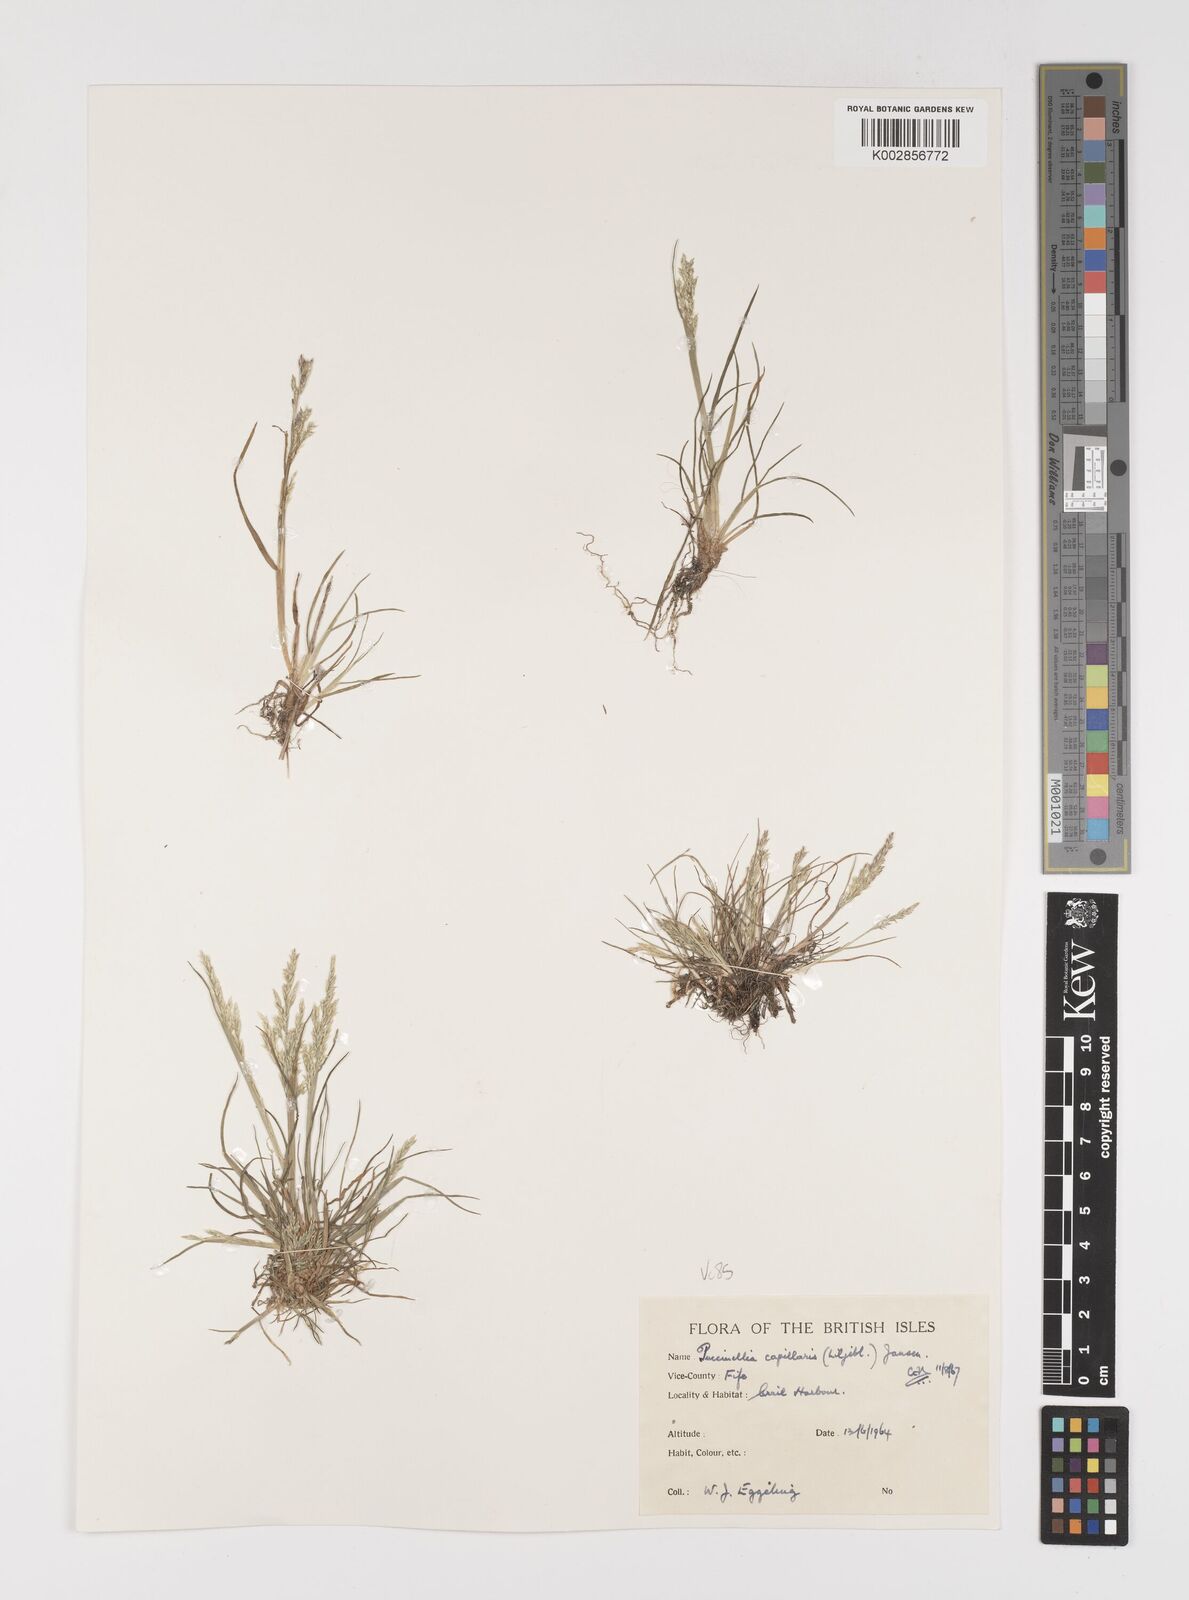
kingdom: Plantae
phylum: Tracheophyta
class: Liliopsida
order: Poales
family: Poaceae
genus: Puccinellia
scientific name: Puccinellia distans
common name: Weeping alkaligrass
